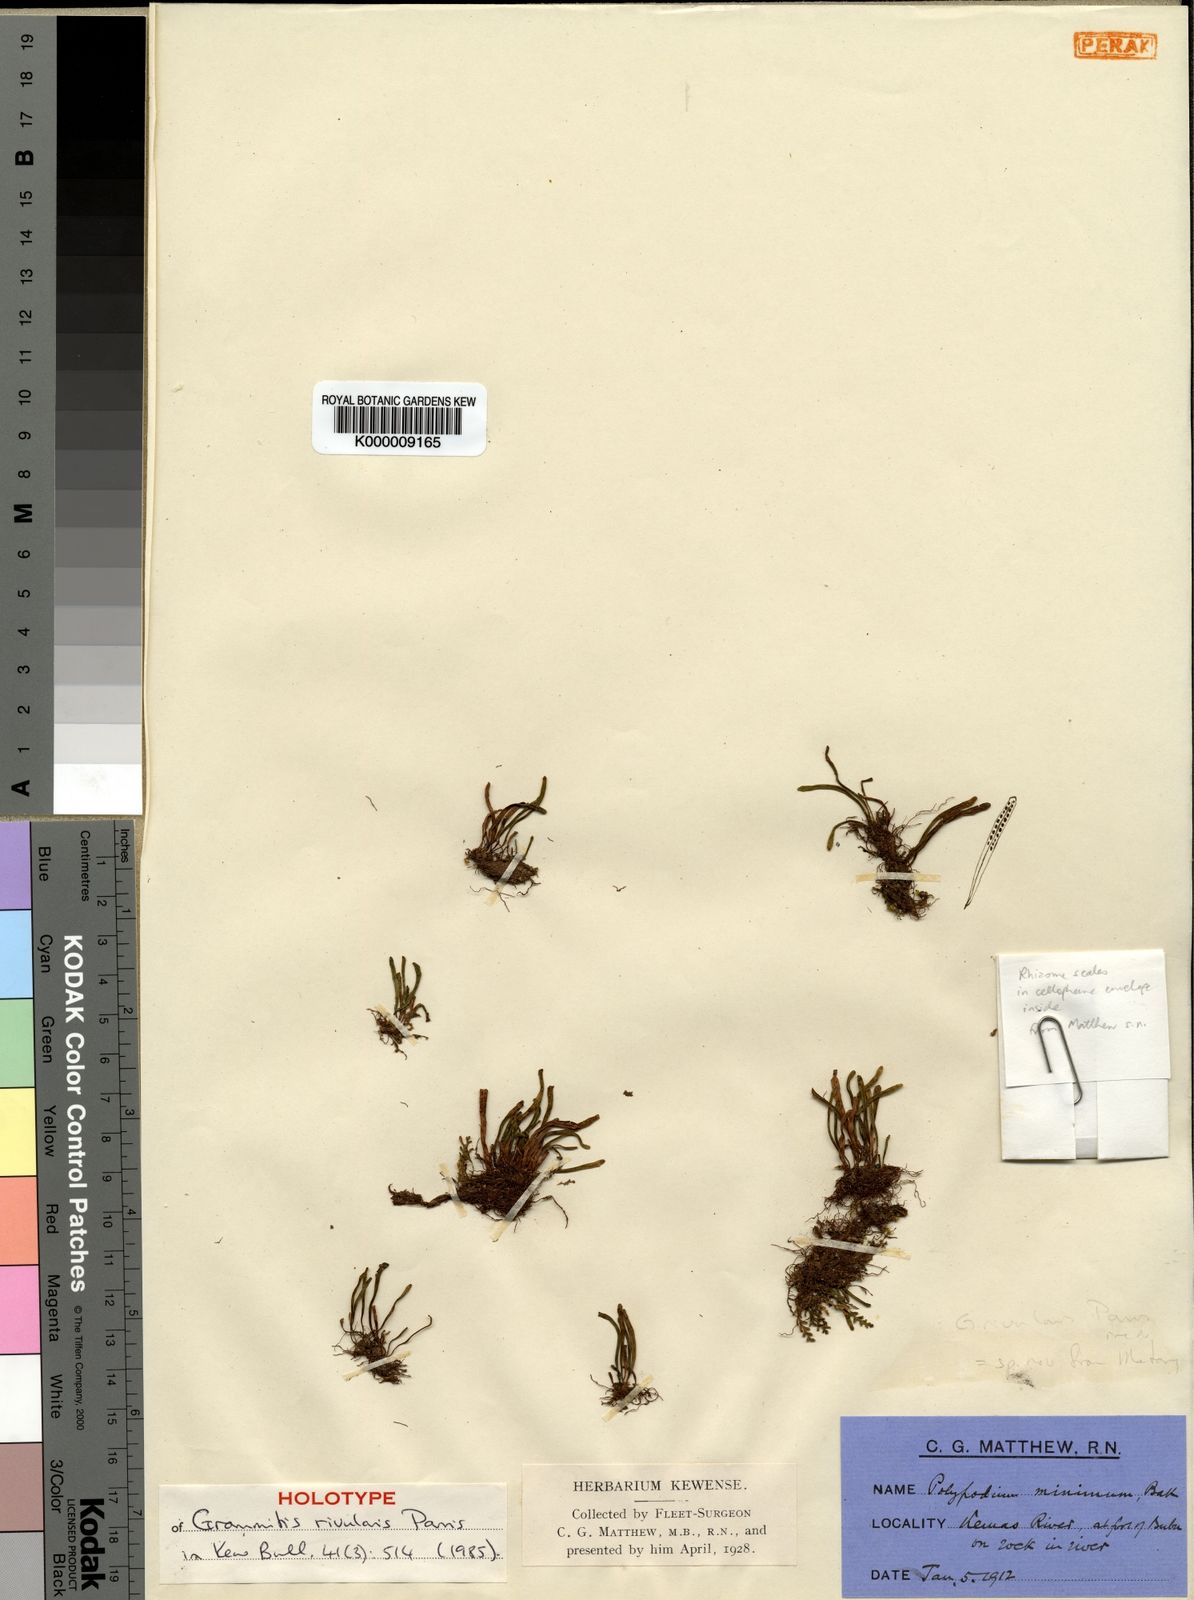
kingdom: Plantae
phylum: Tracheophyta
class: Polypodiopsida
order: Polypodiales
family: Polypodiaceae
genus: Oreogrammitis
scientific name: Oreogrammitis rivularis
